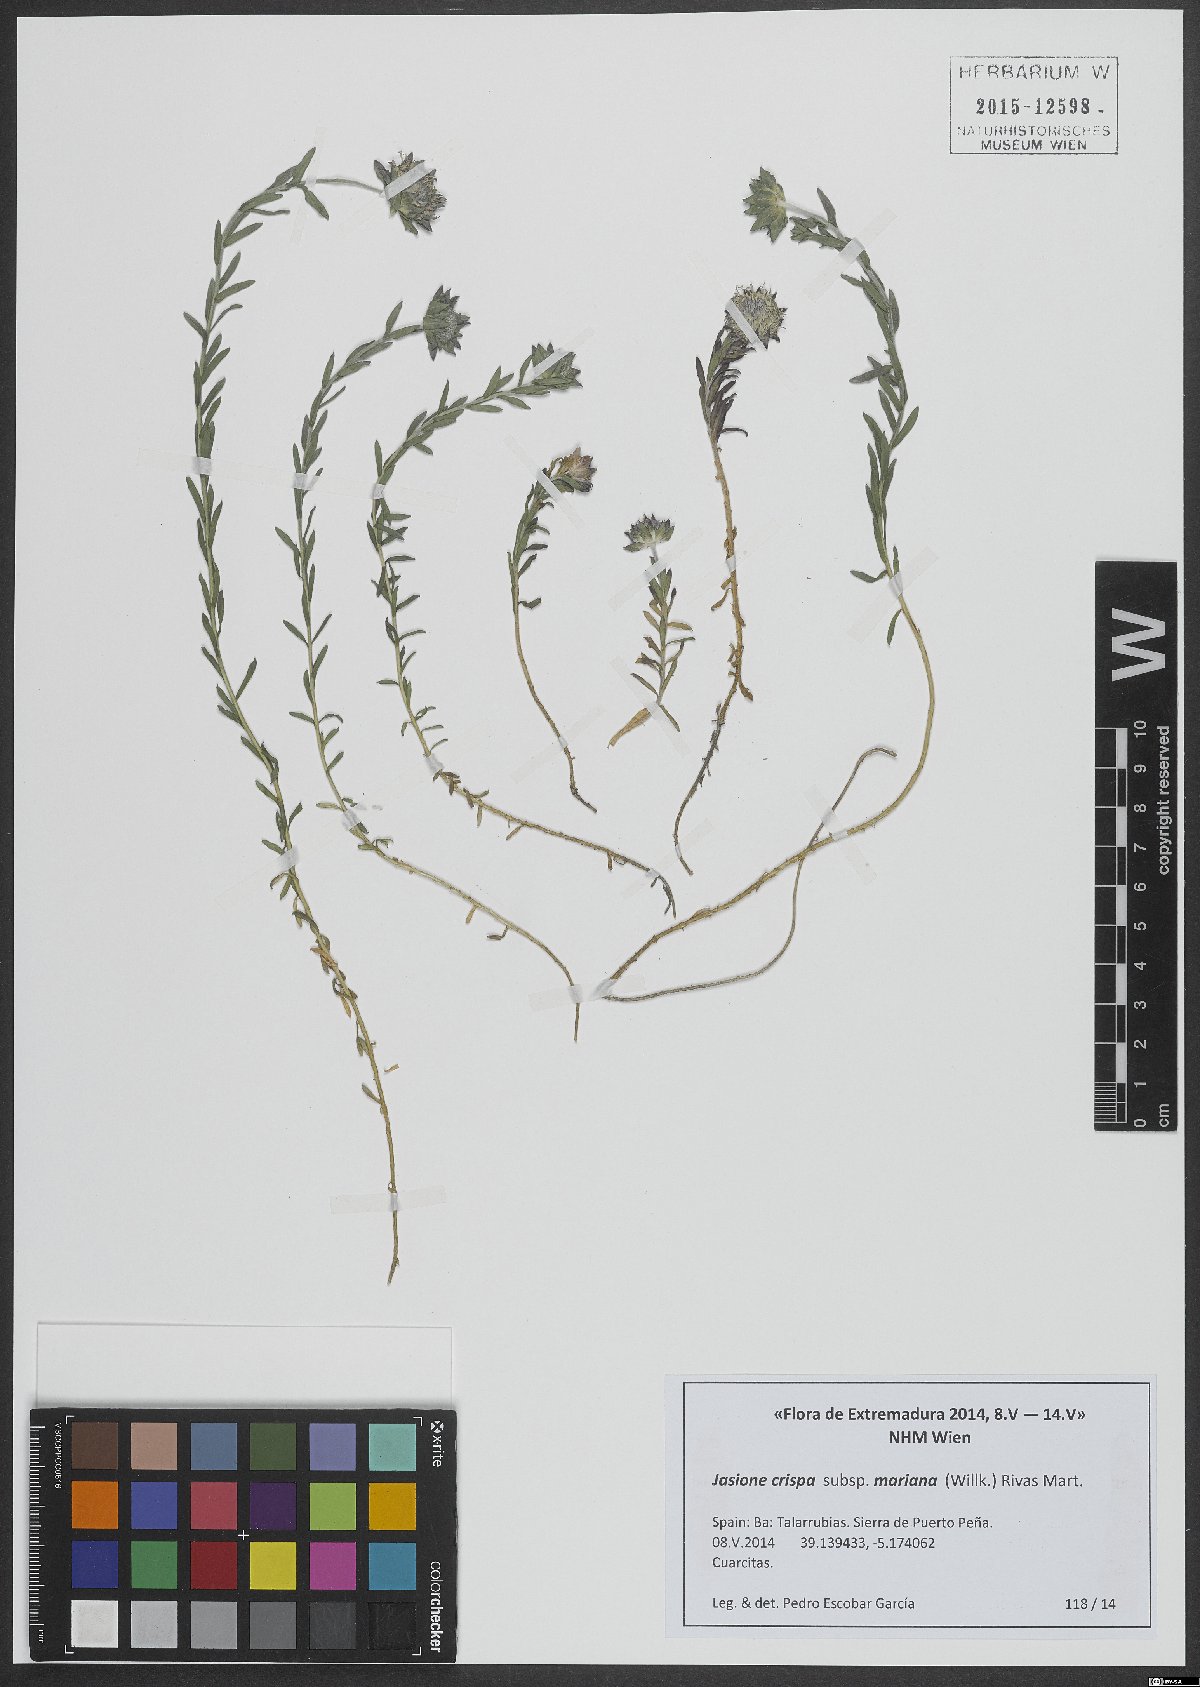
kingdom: Plantae
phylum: Tracheophyta
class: Magnoliopsida
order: Asterales
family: Campanulaceae
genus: Jasione
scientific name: Jasione crispa
